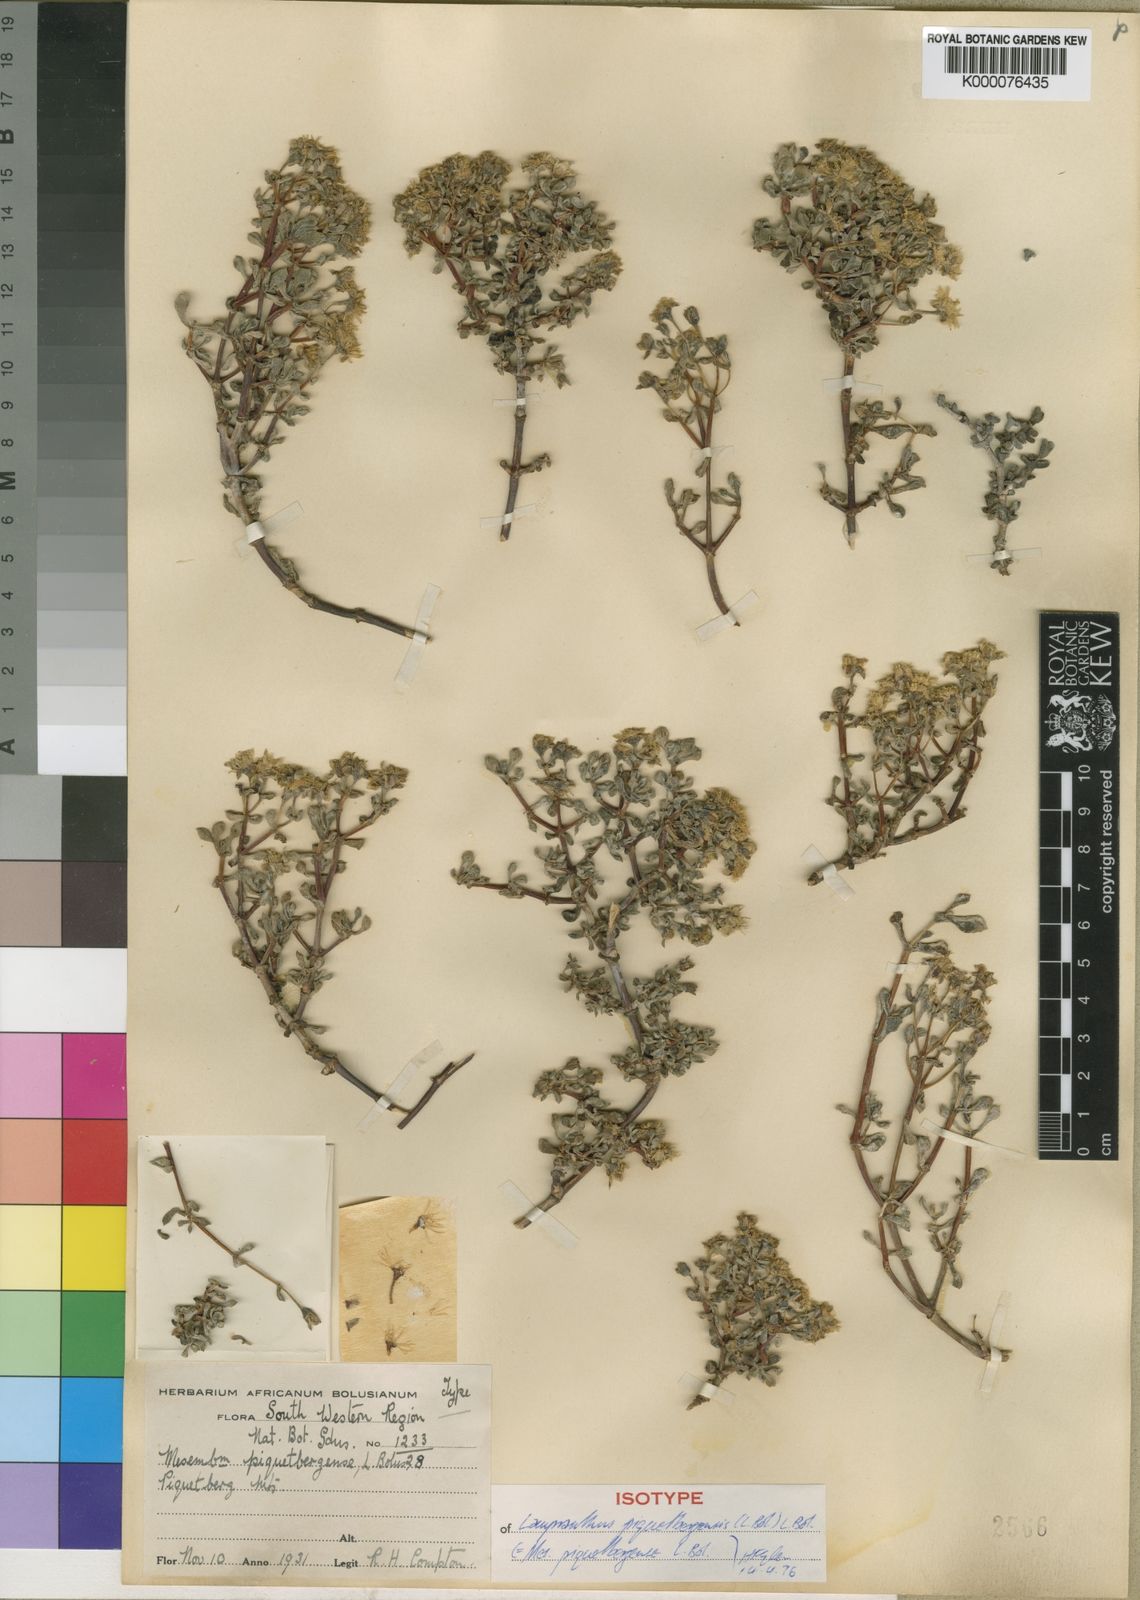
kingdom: Plantae
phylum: Tracheophyta
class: Magnoliopsida
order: Caryophyllales
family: Aizoaceae
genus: Oscularia
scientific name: Oscularia piquetbergensis
